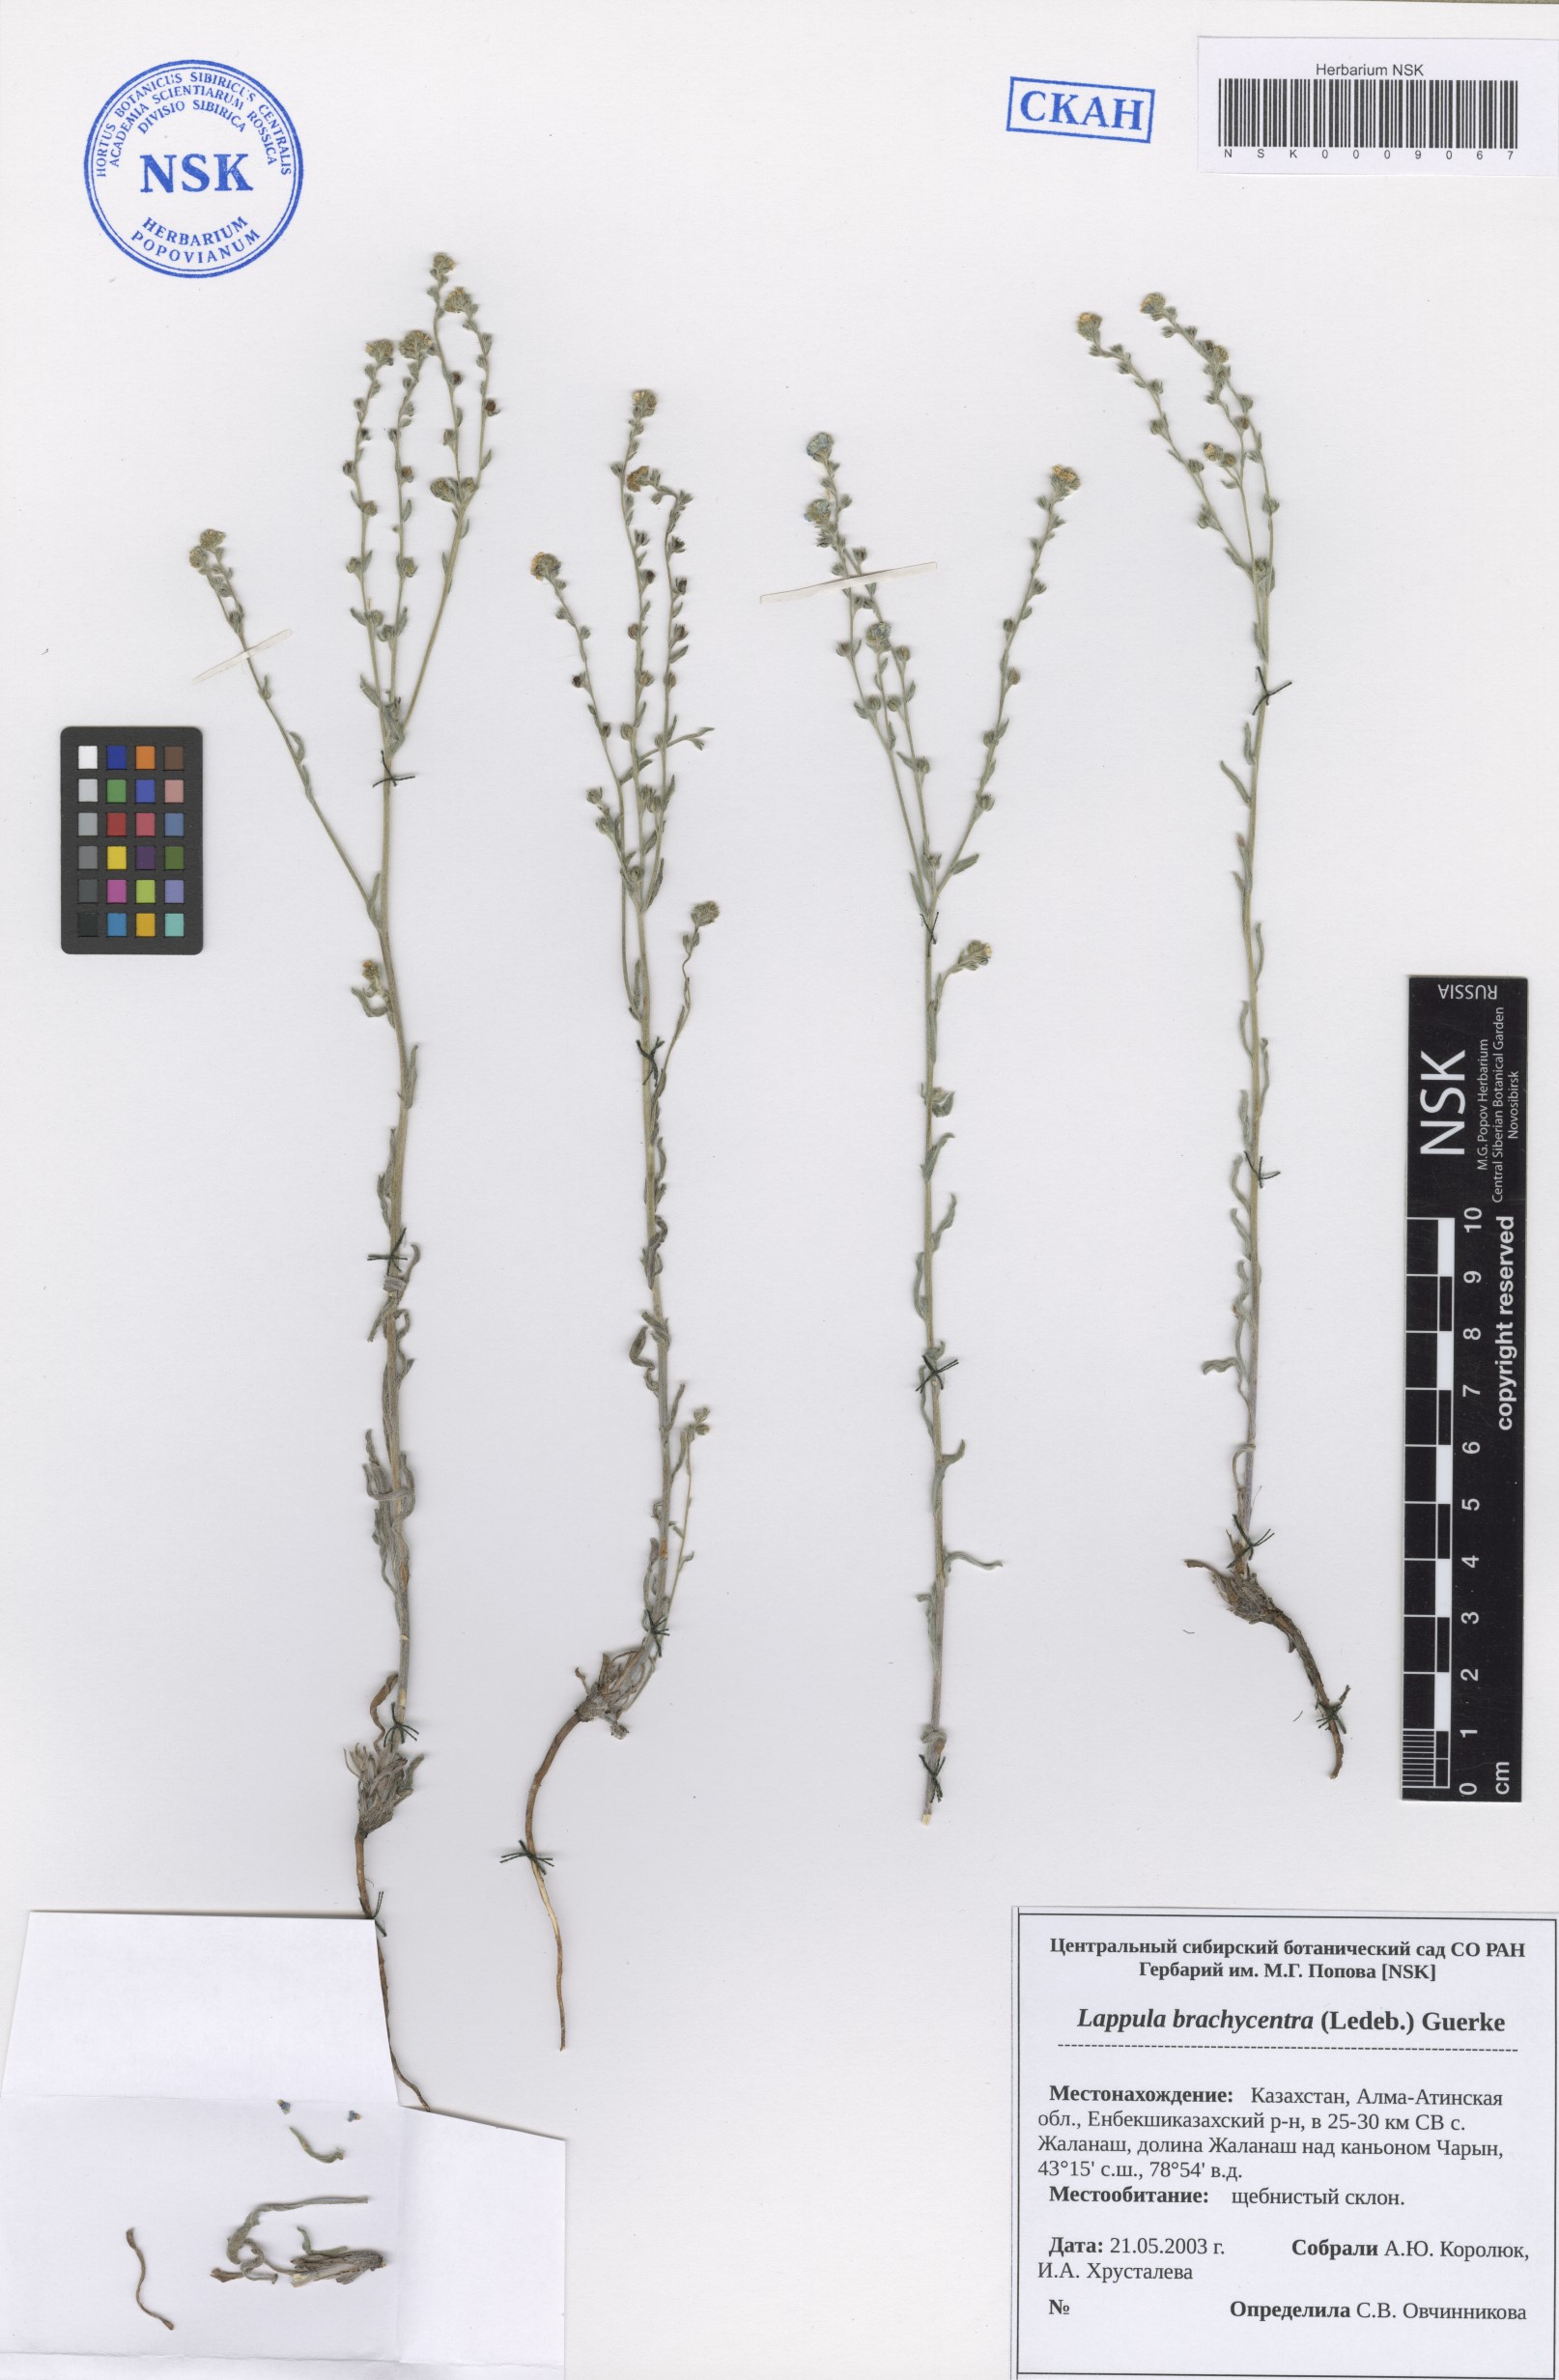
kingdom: Plantae
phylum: Tracheophyta
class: Magnoliopsida
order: Boraginales
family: Boraginaceae
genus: Lappula
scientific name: Lappula brachycentra
